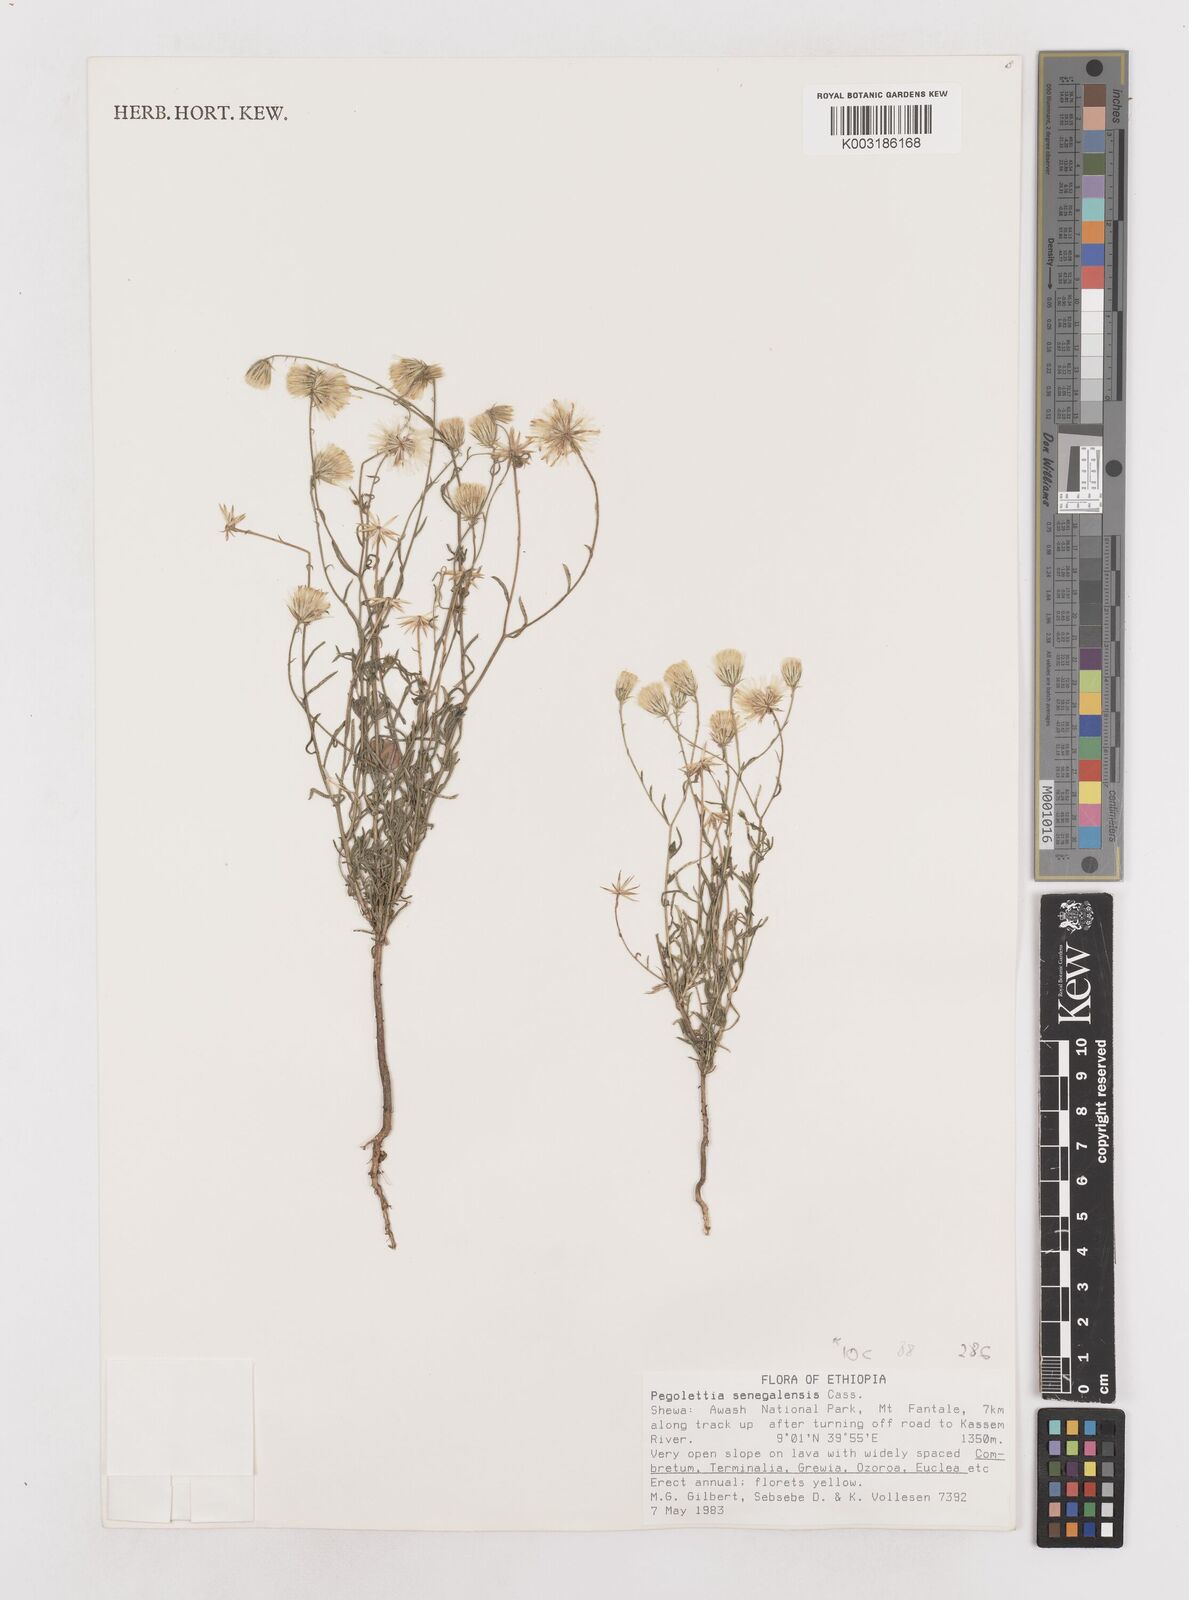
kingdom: Plantae
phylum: Tracheophyta
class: Magnoliopsida
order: Asterales
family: Asteraceae
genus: Pegolettia
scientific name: Pegolettia senegalensis
